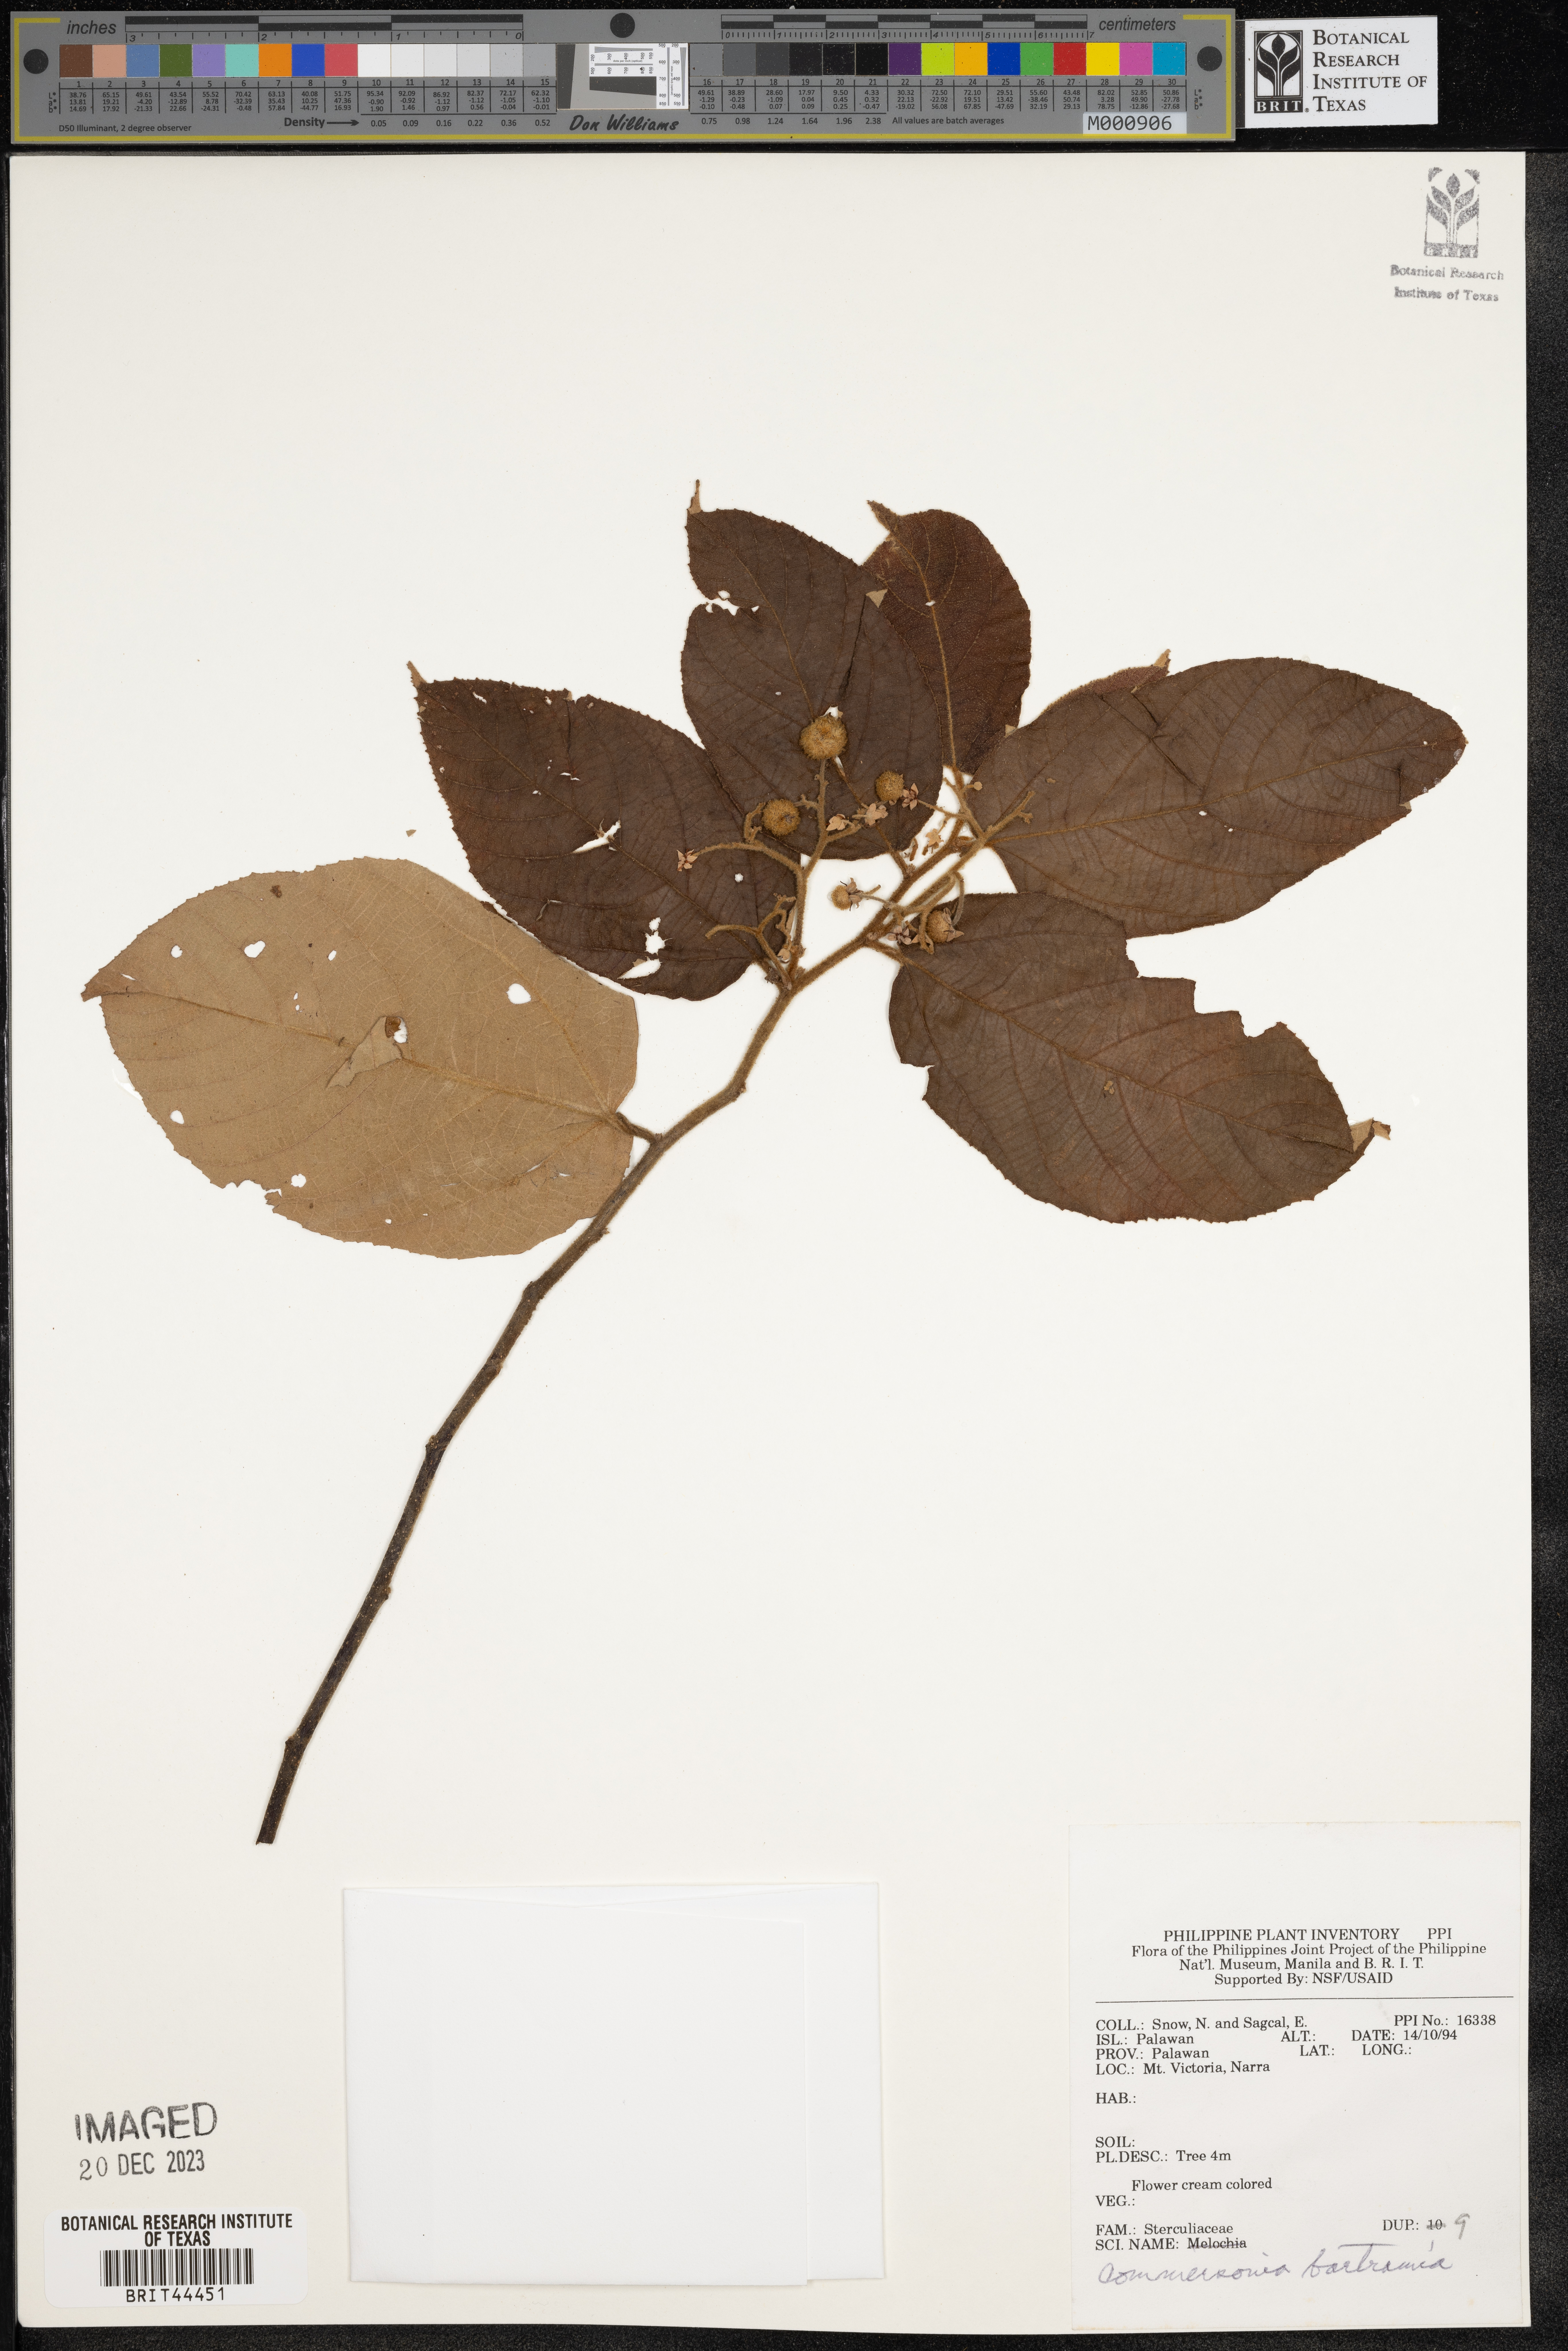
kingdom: Plantae
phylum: Tracheophyta
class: Magnoliopsida
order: Malvales
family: Malvaceae
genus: Commersonia
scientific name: Commersonia bartramia
